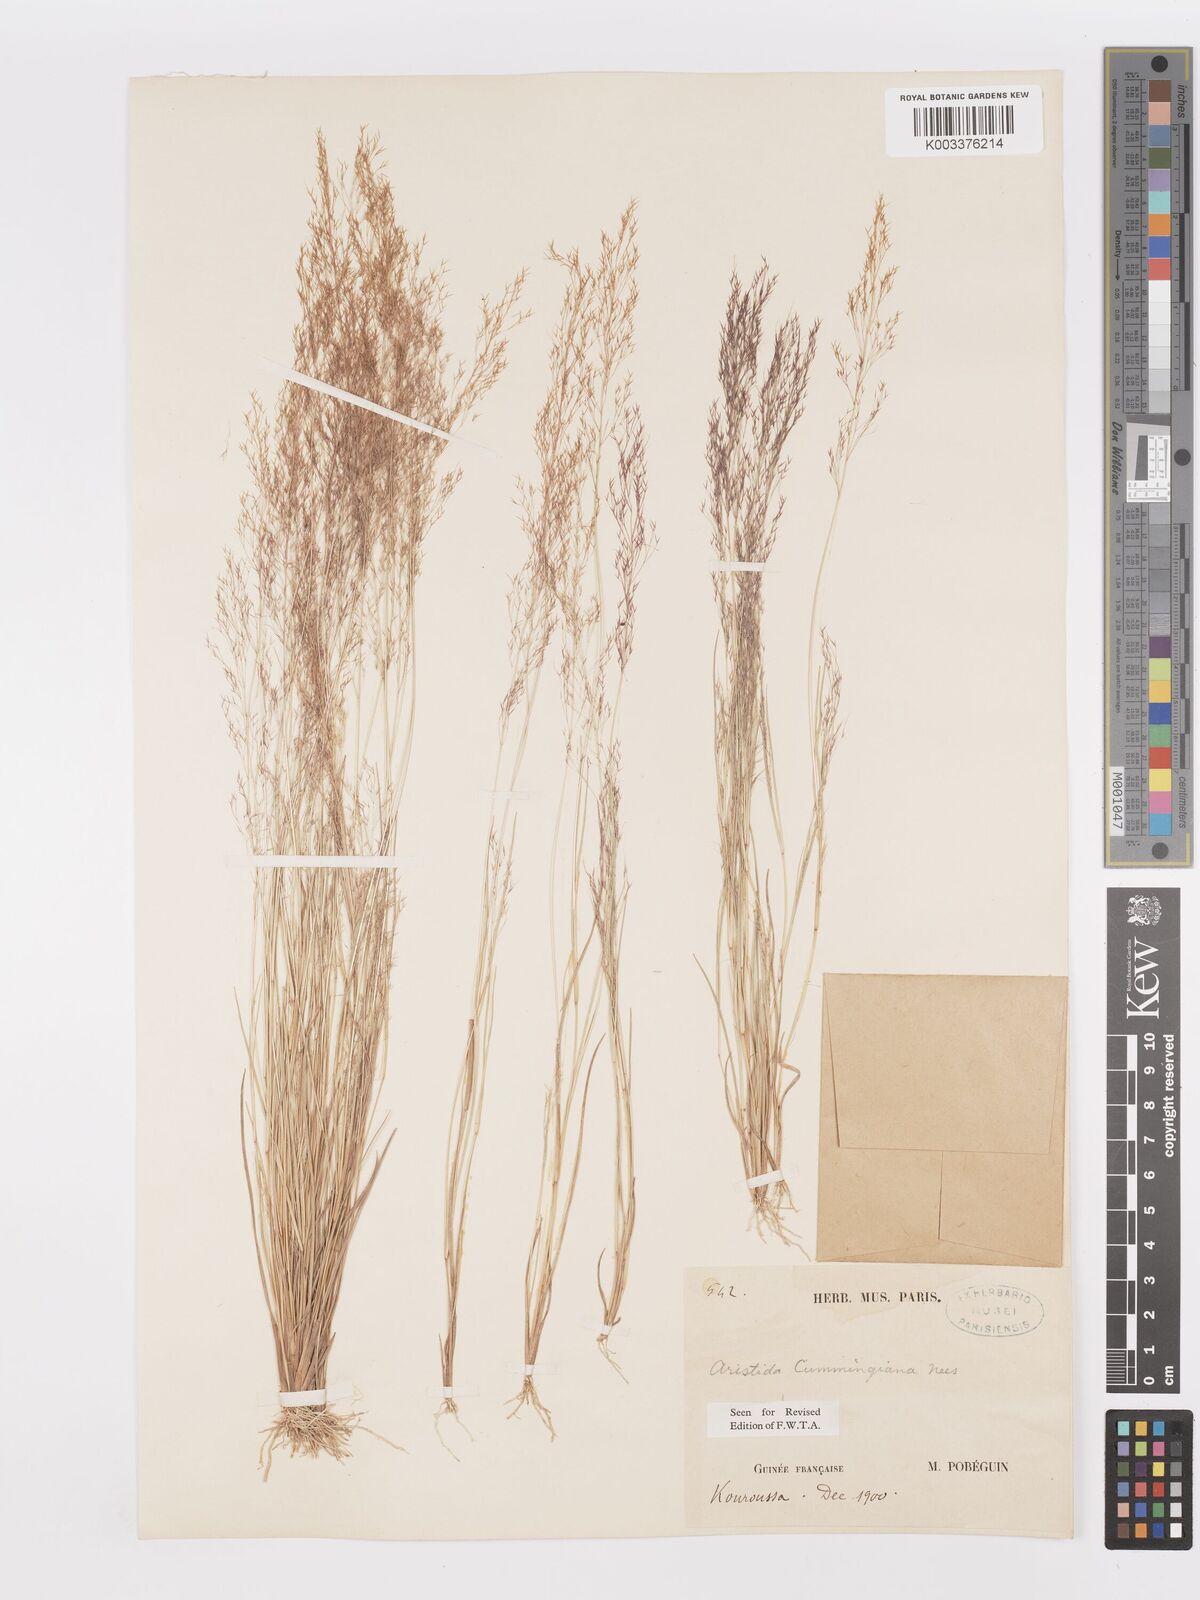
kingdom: Plantae
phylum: Tracheophyta
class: Liliopsida
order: Poales
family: Poaceae
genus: Aristida
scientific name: Aristida cumingiana
